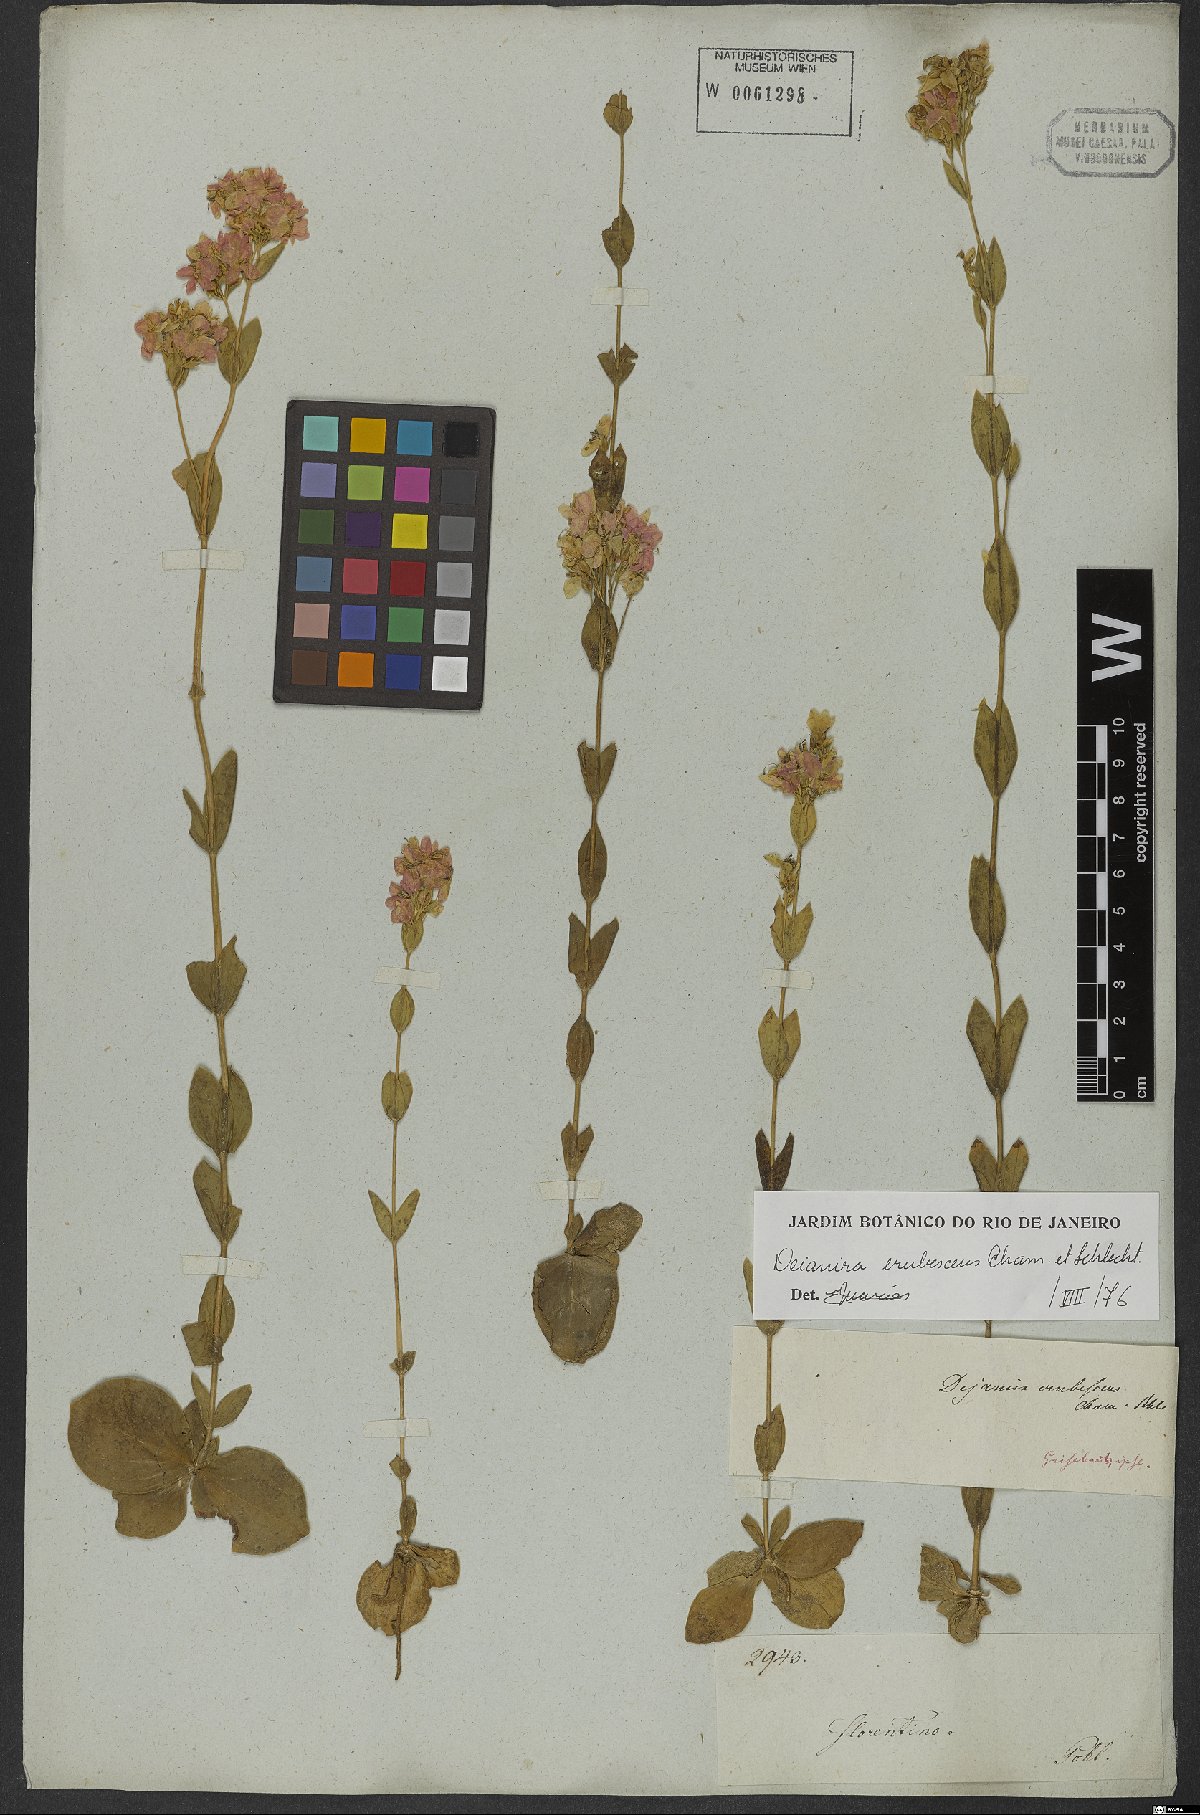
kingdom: Plantae
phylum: Tracheophyta
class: Magnoliopsida
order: Gentianales
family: Gentianaceae
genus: Deianira
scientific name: Deianira erubescens
